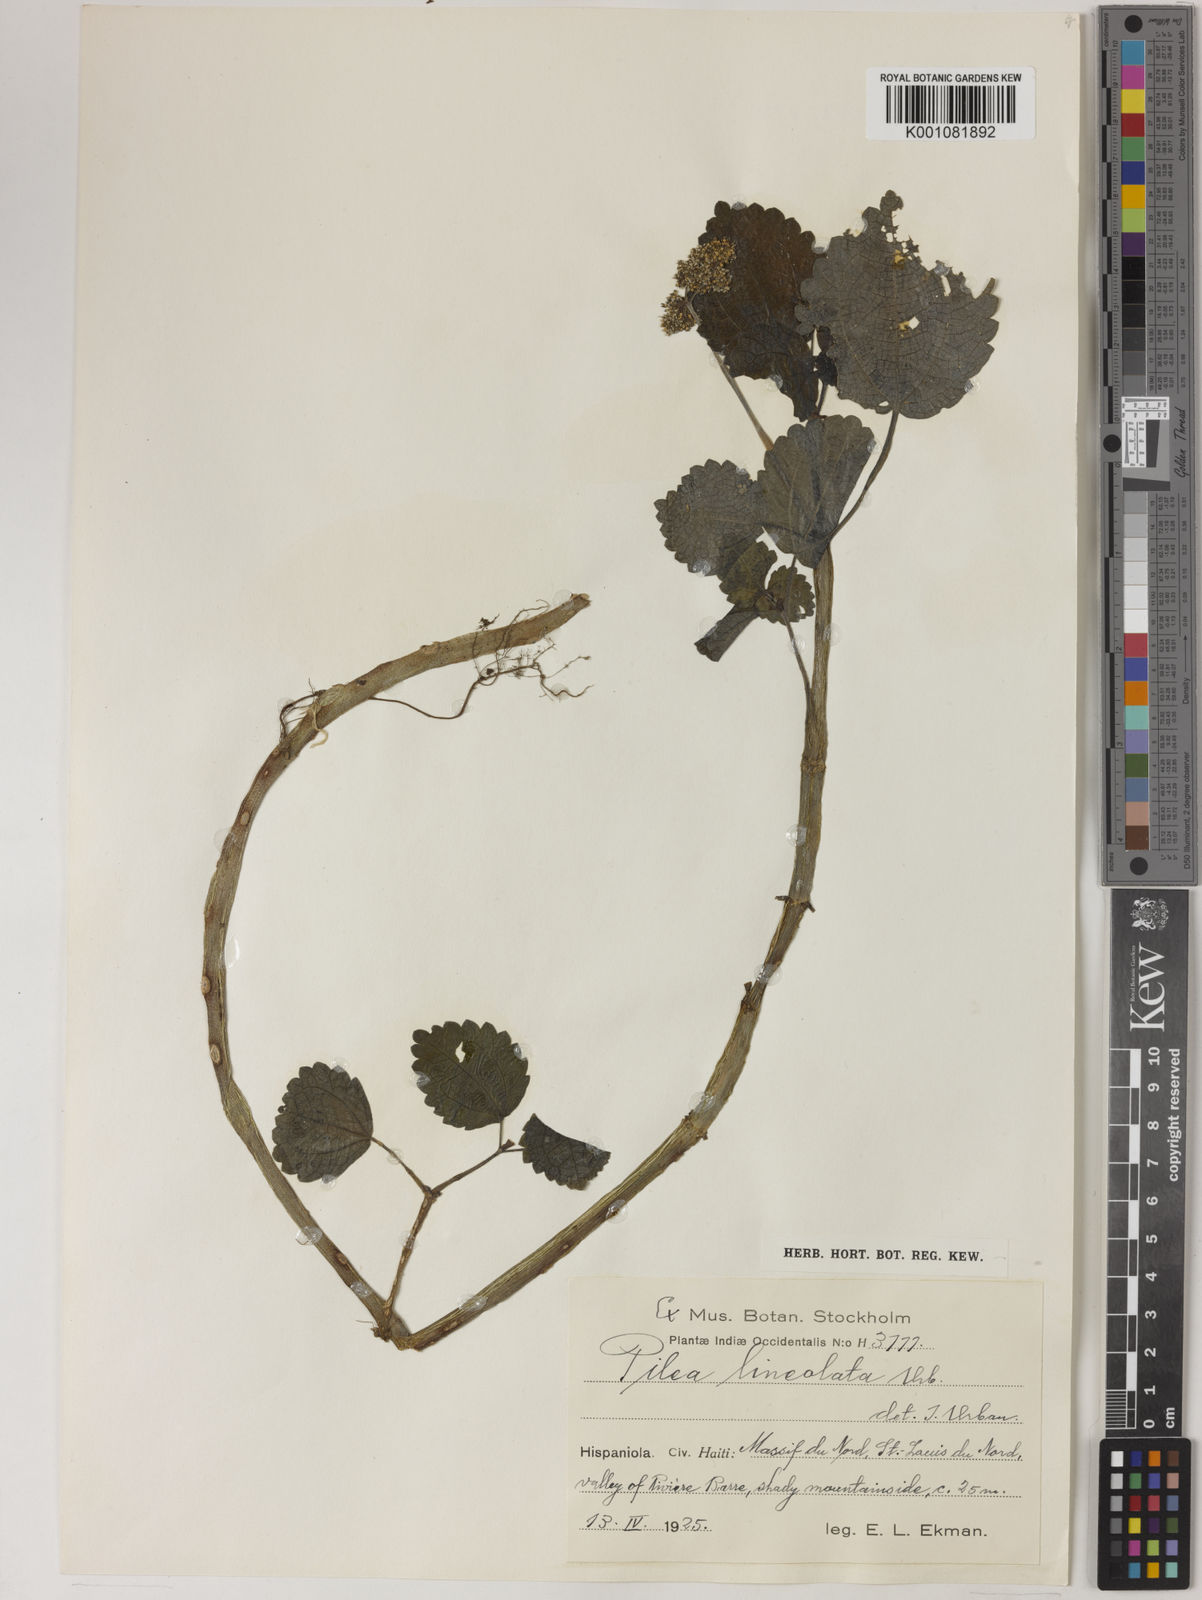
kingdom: Plantae
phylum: Tracheophyta
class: Magnoliopsida
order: Rosales
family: Urticaceae
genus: Pilea
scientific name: Pilea betulifolia
